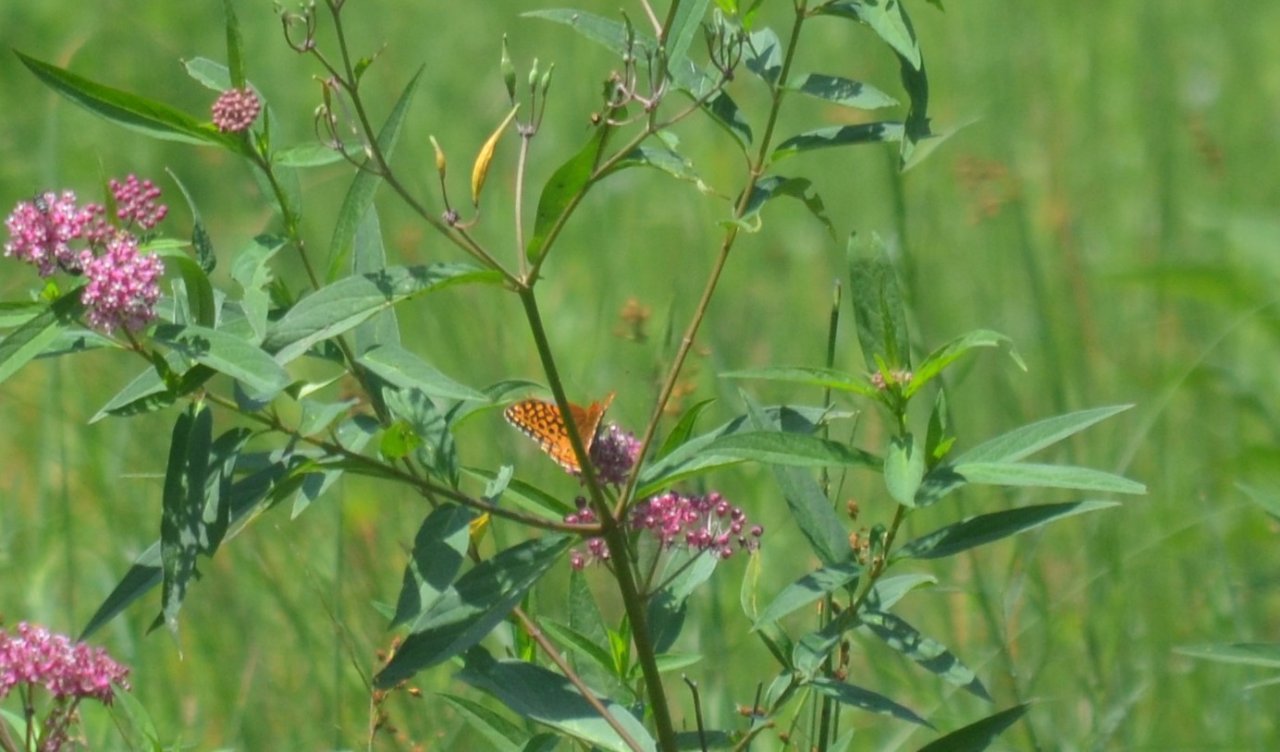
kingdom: Animalia
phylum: Arthropoda
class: Insecta
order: Lepidoptera
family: Nymphalidae
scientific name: Nymphalidae
